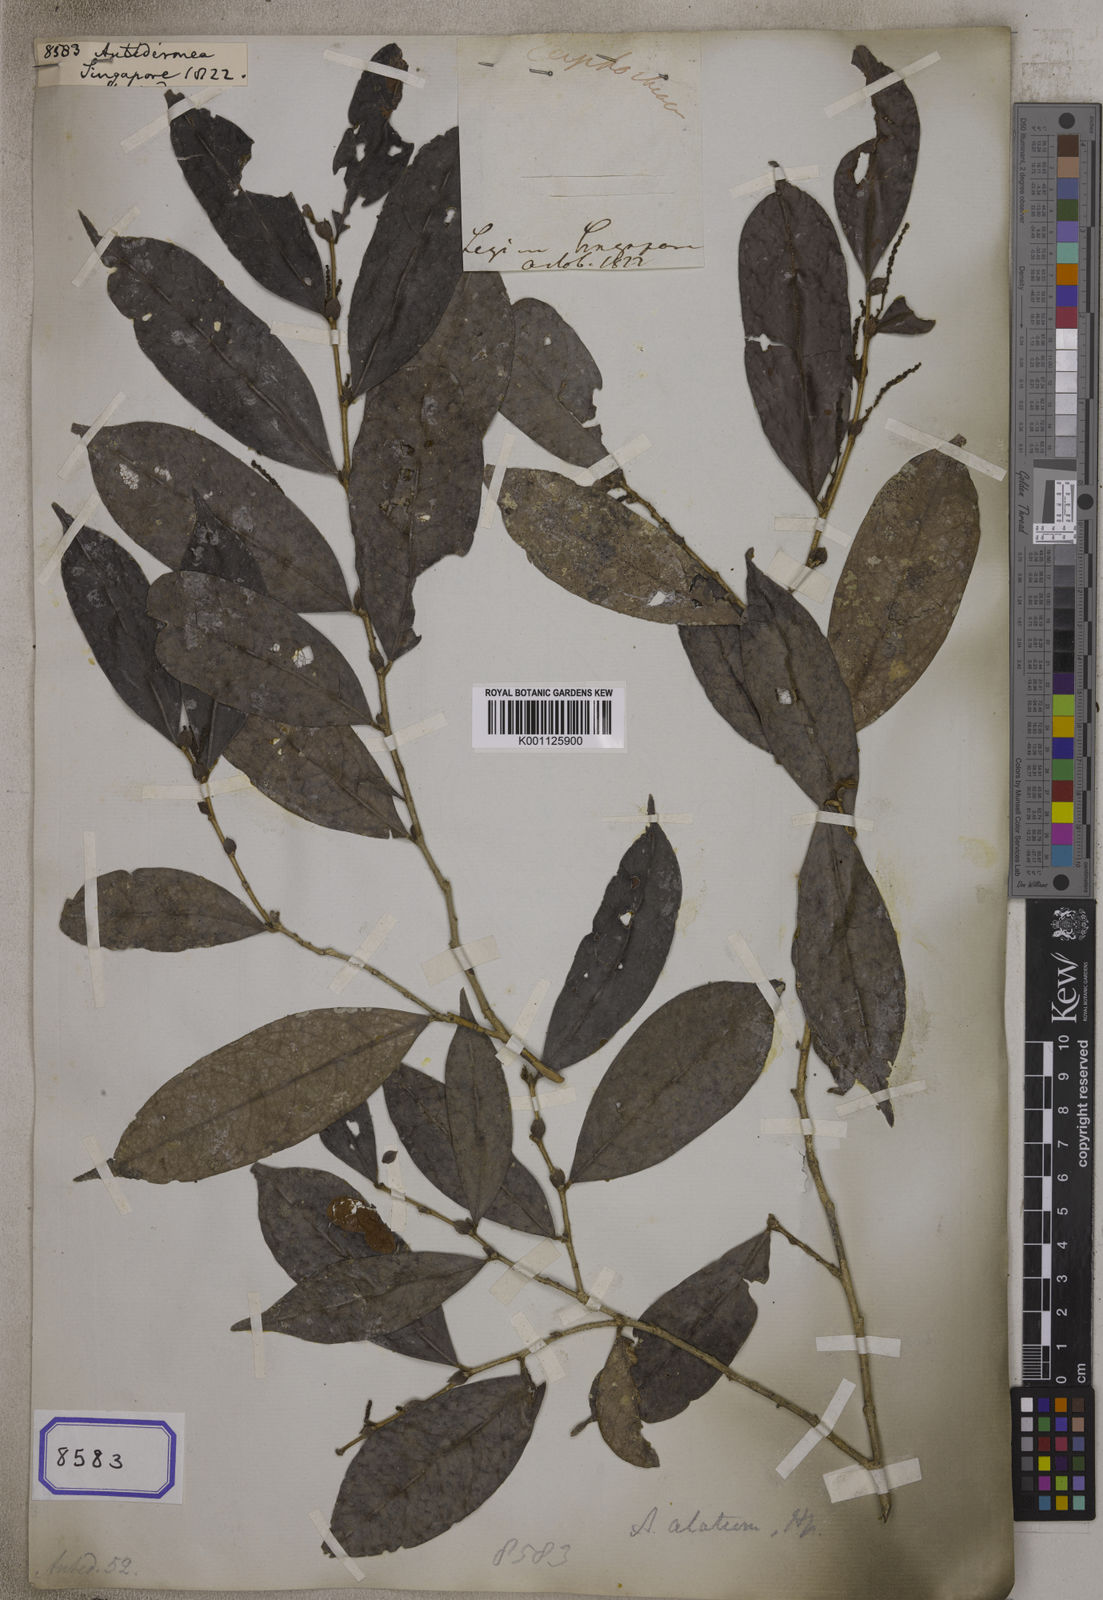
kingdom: Plantae
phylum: Tracheophyta
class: Magnoliopsida
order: Malpighiales
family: Phyllanthaceae
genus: Antidesma
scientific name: Antidesma
